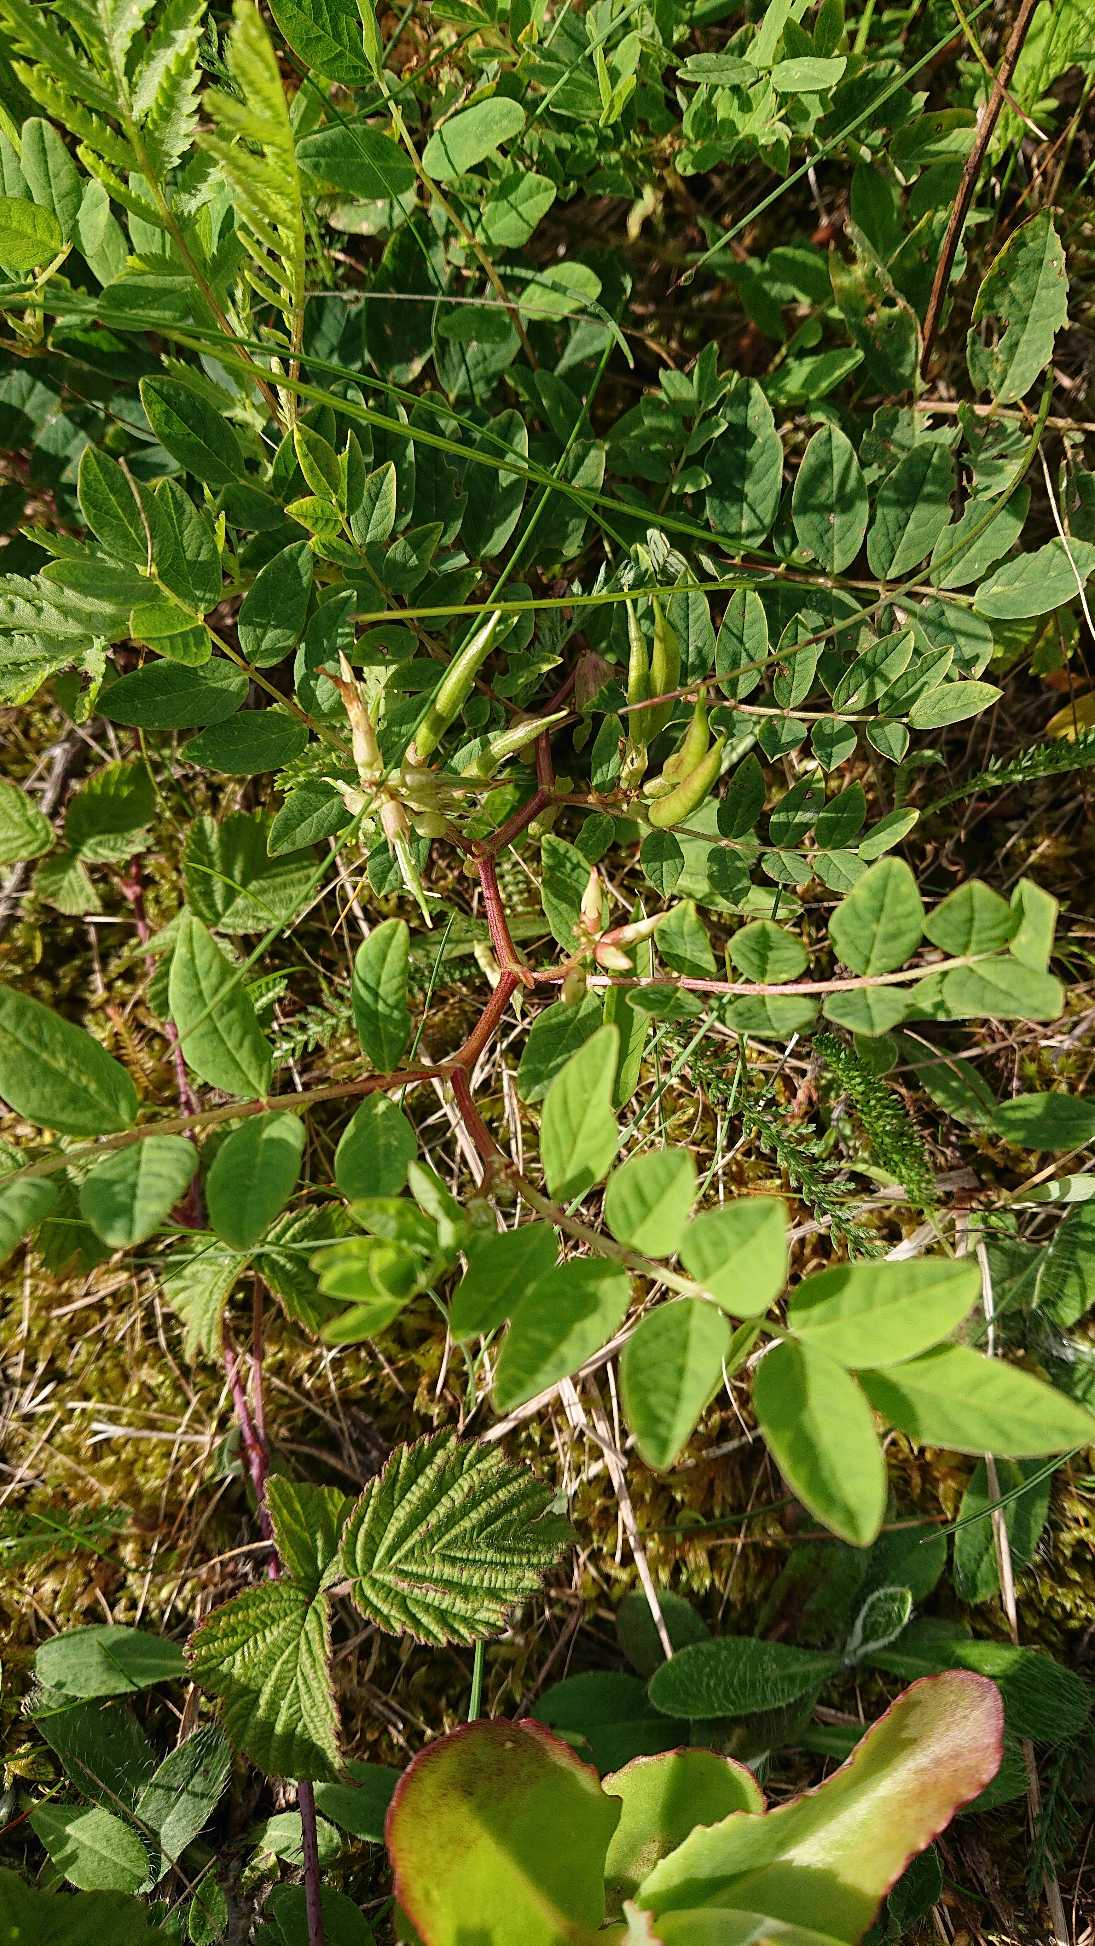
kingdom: Plantae
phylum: Tracheophyta
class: Magnoliopsida
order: Fabales
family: Fabaceae
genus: Astragalus
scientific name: Astragalus glycyphyllos
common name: Sød astragel
